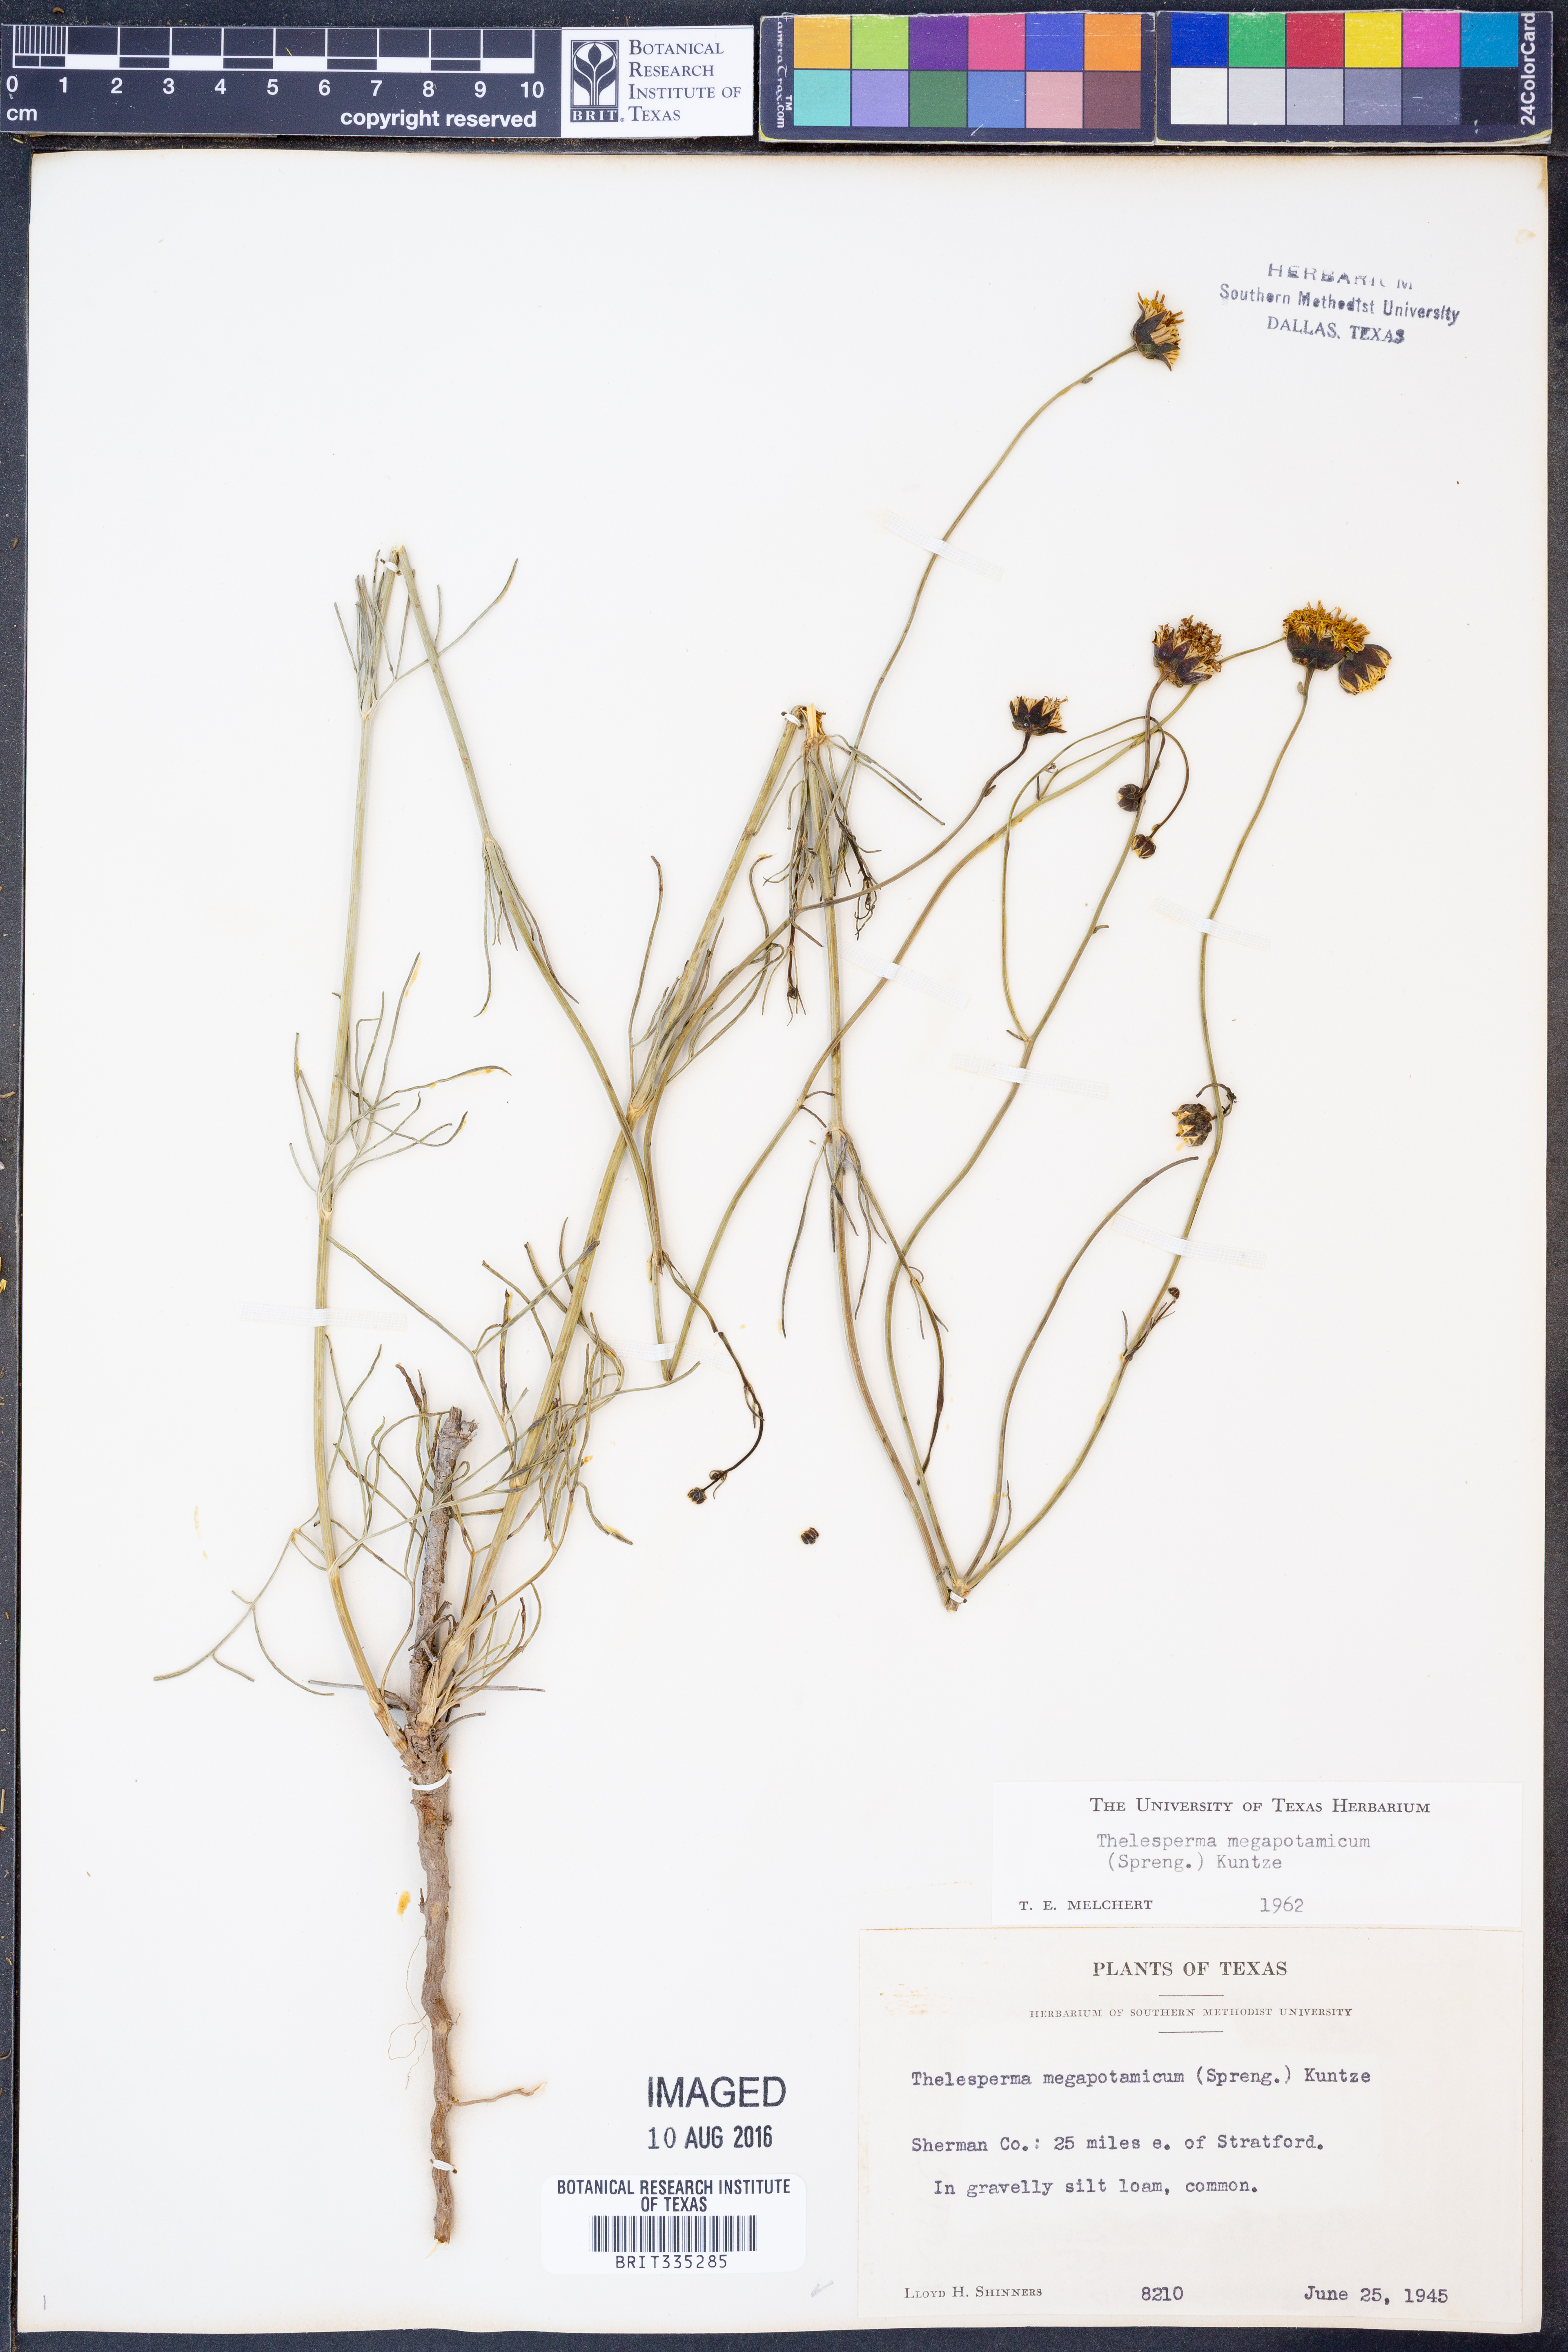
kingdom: Plantae
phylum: Tracheophyta
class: Magnoliopsida
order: Asterales
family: Asteraceae
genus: Thelesperma
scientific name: Thelesperma megapotamicum
